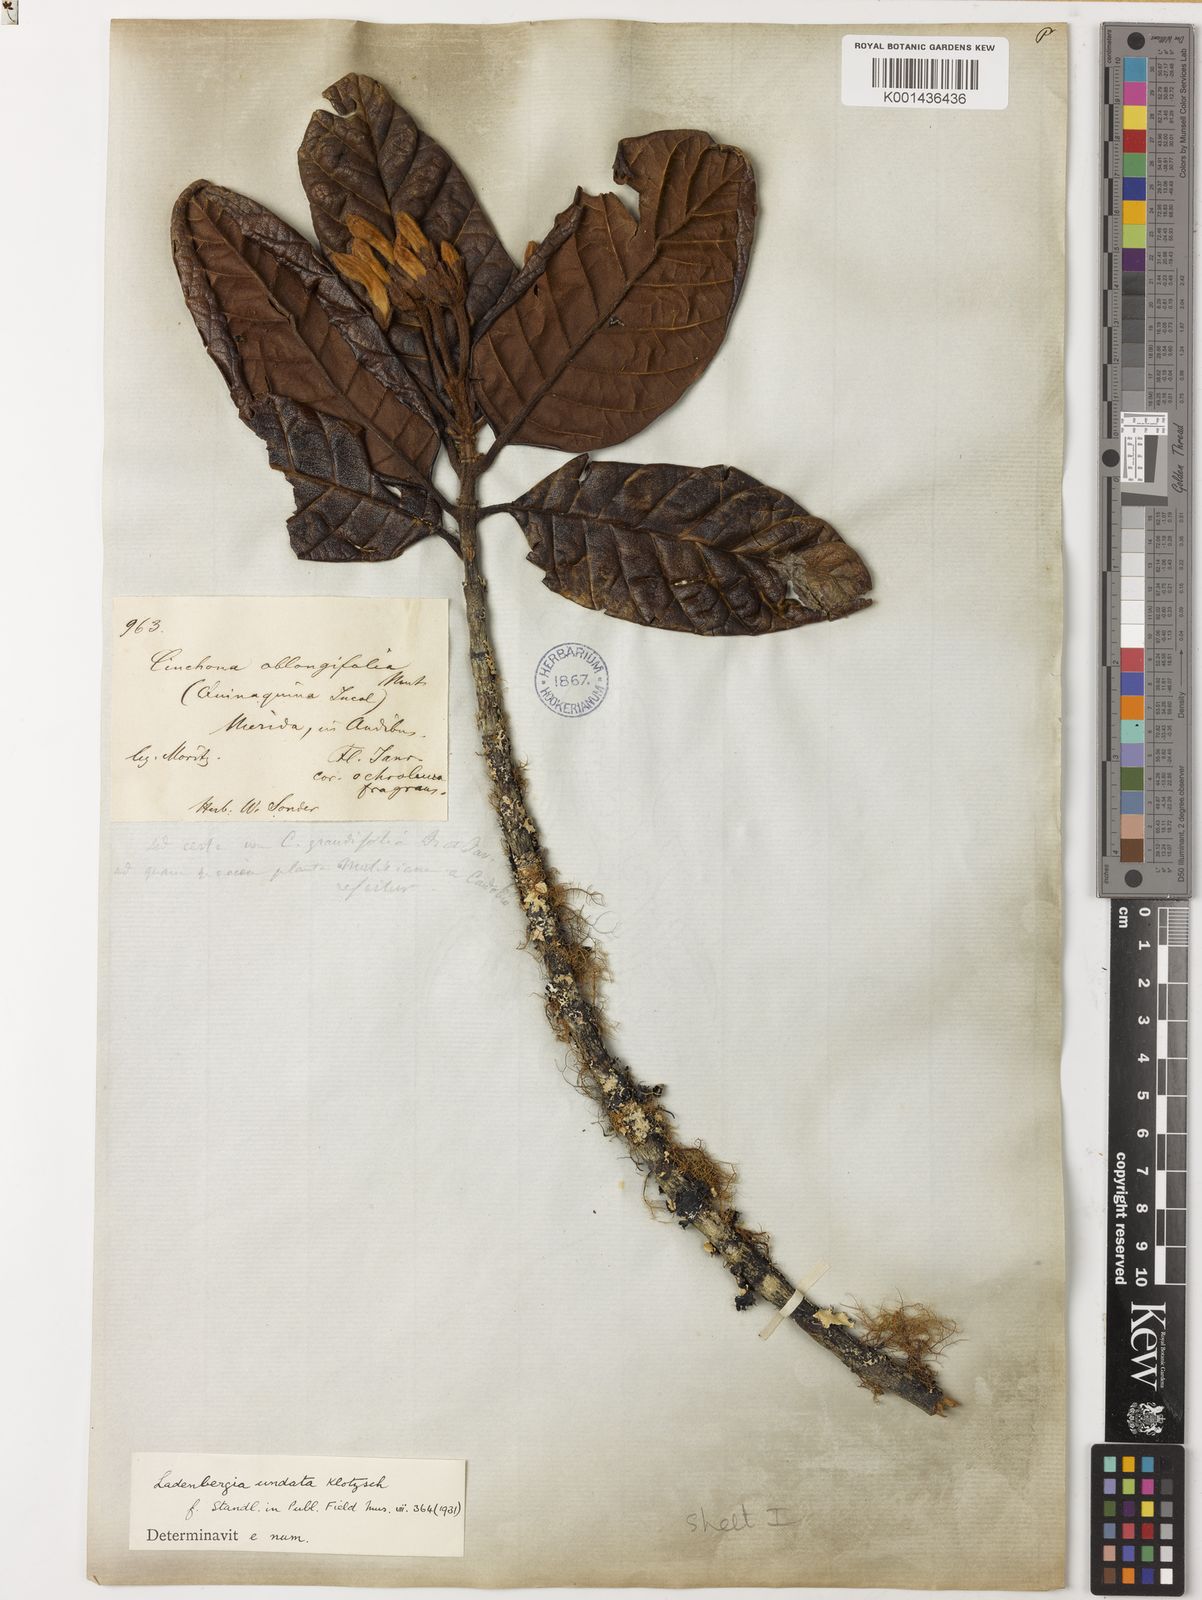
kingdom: Plantae
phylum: Tracheophyta
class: Magnoliopsida
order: Gentianales
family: Rubiaceae
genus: Ladenbergia
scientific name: Ladenbergia undata
